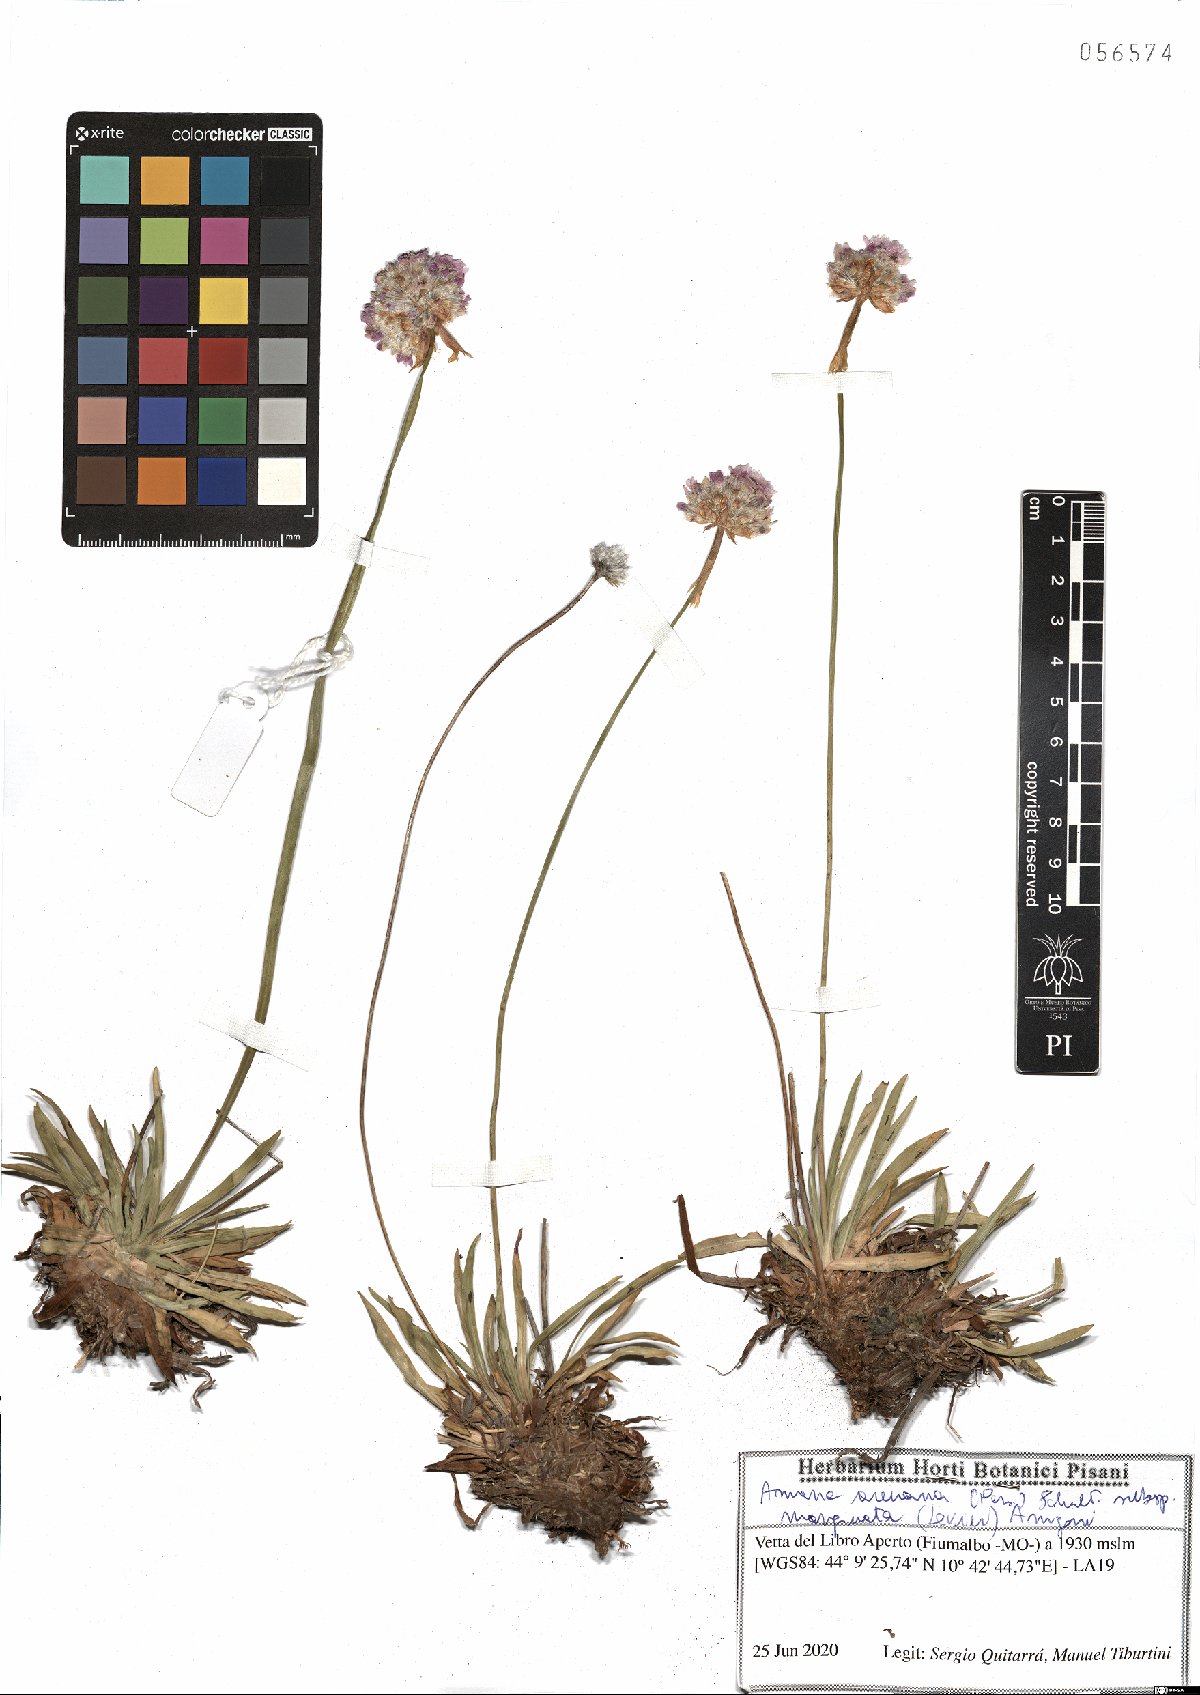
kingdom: Plantae
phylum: Tracheophyta
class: Magnoliopsida
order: Caryophyllales
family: Plumbaginaceae
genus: Armeria
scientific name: Armeria arenaria
